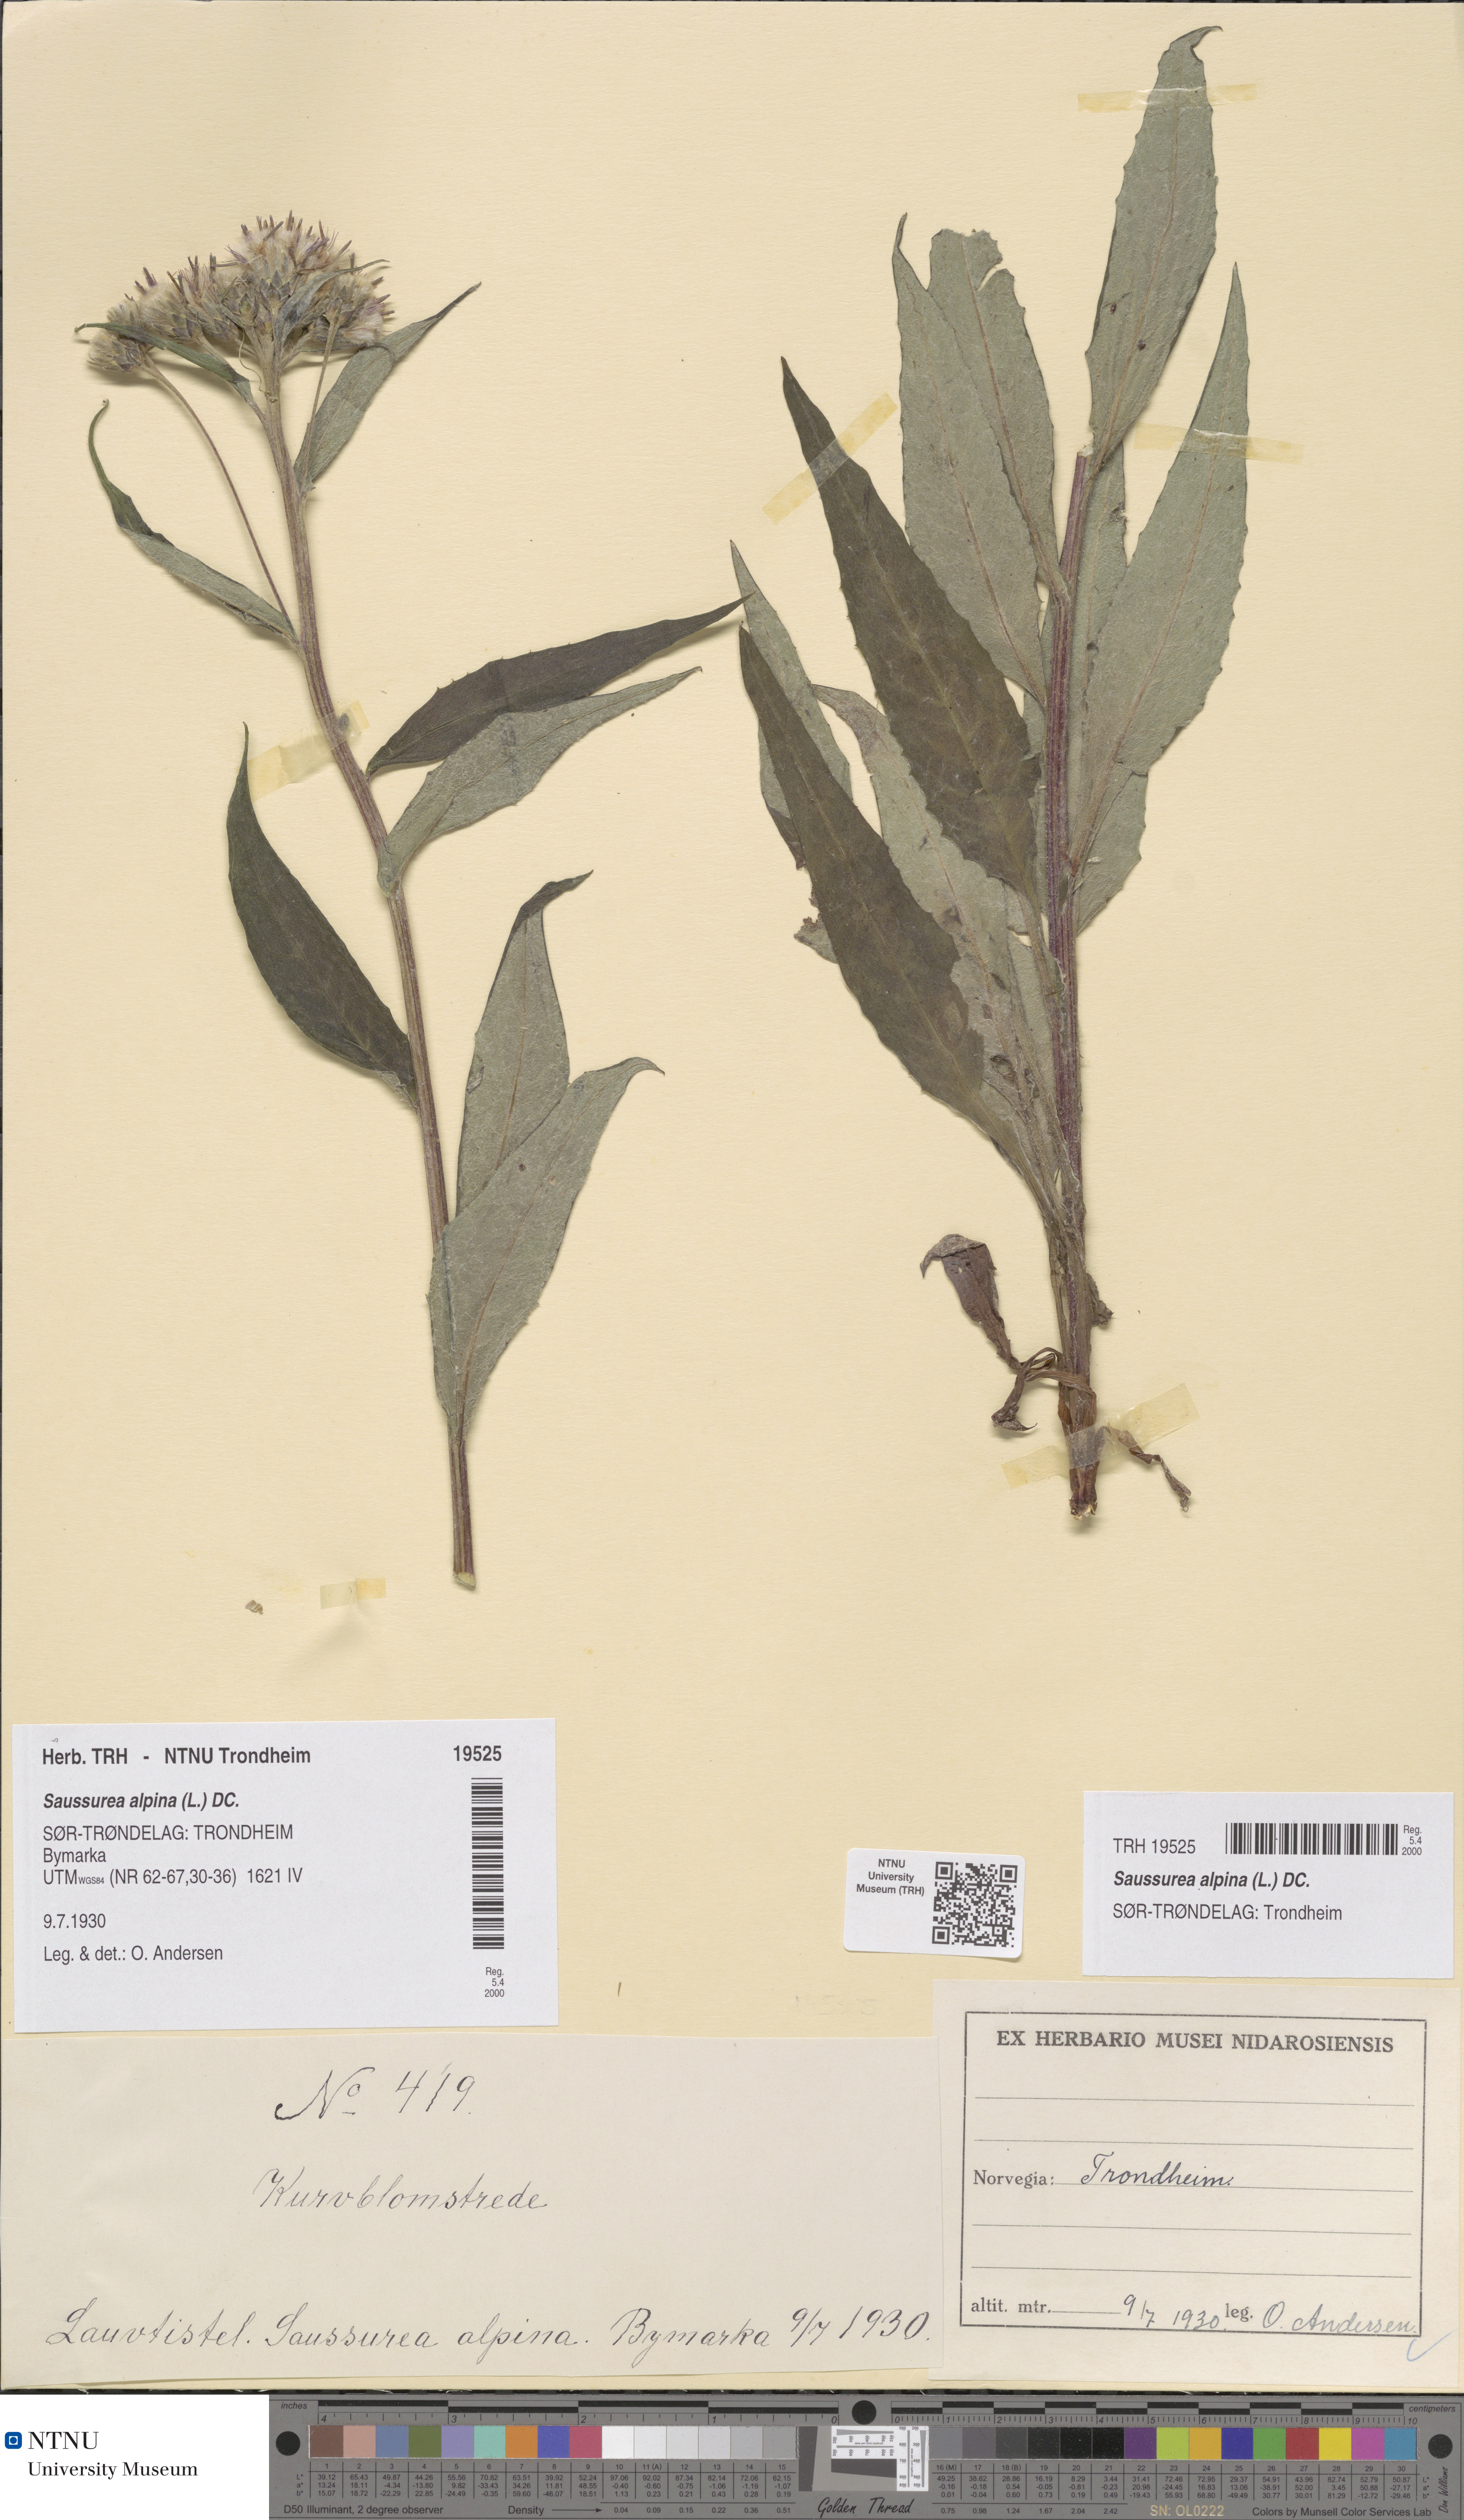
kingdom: Plantae
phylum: Tracheophyta
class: Magnoliopsida
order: Asterales
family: Asteraceae
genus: Saussurea
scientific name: Saussurea alpina
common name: Alpine saw-wort
